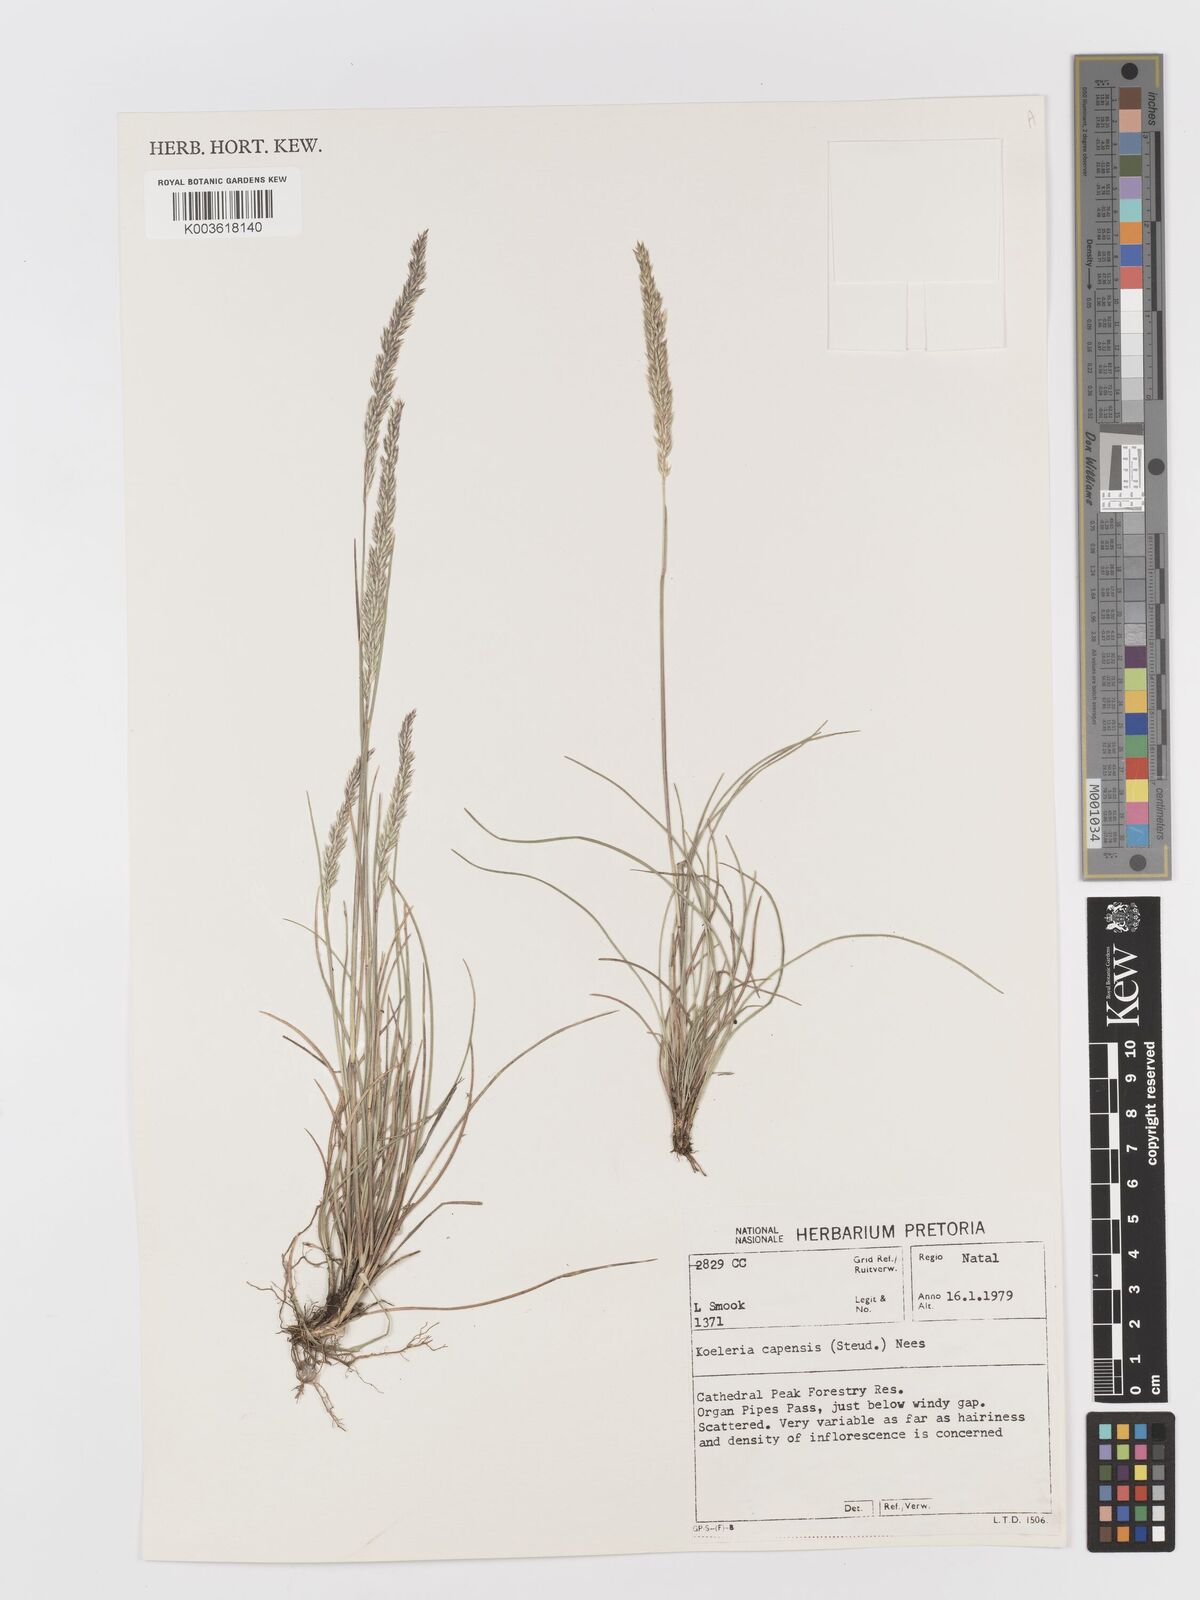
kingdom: Plantae
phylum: Tracheophyta
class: Liliopsida
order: Poales
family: Poaceae
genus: Koeleria
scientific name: Koeleria capensis
